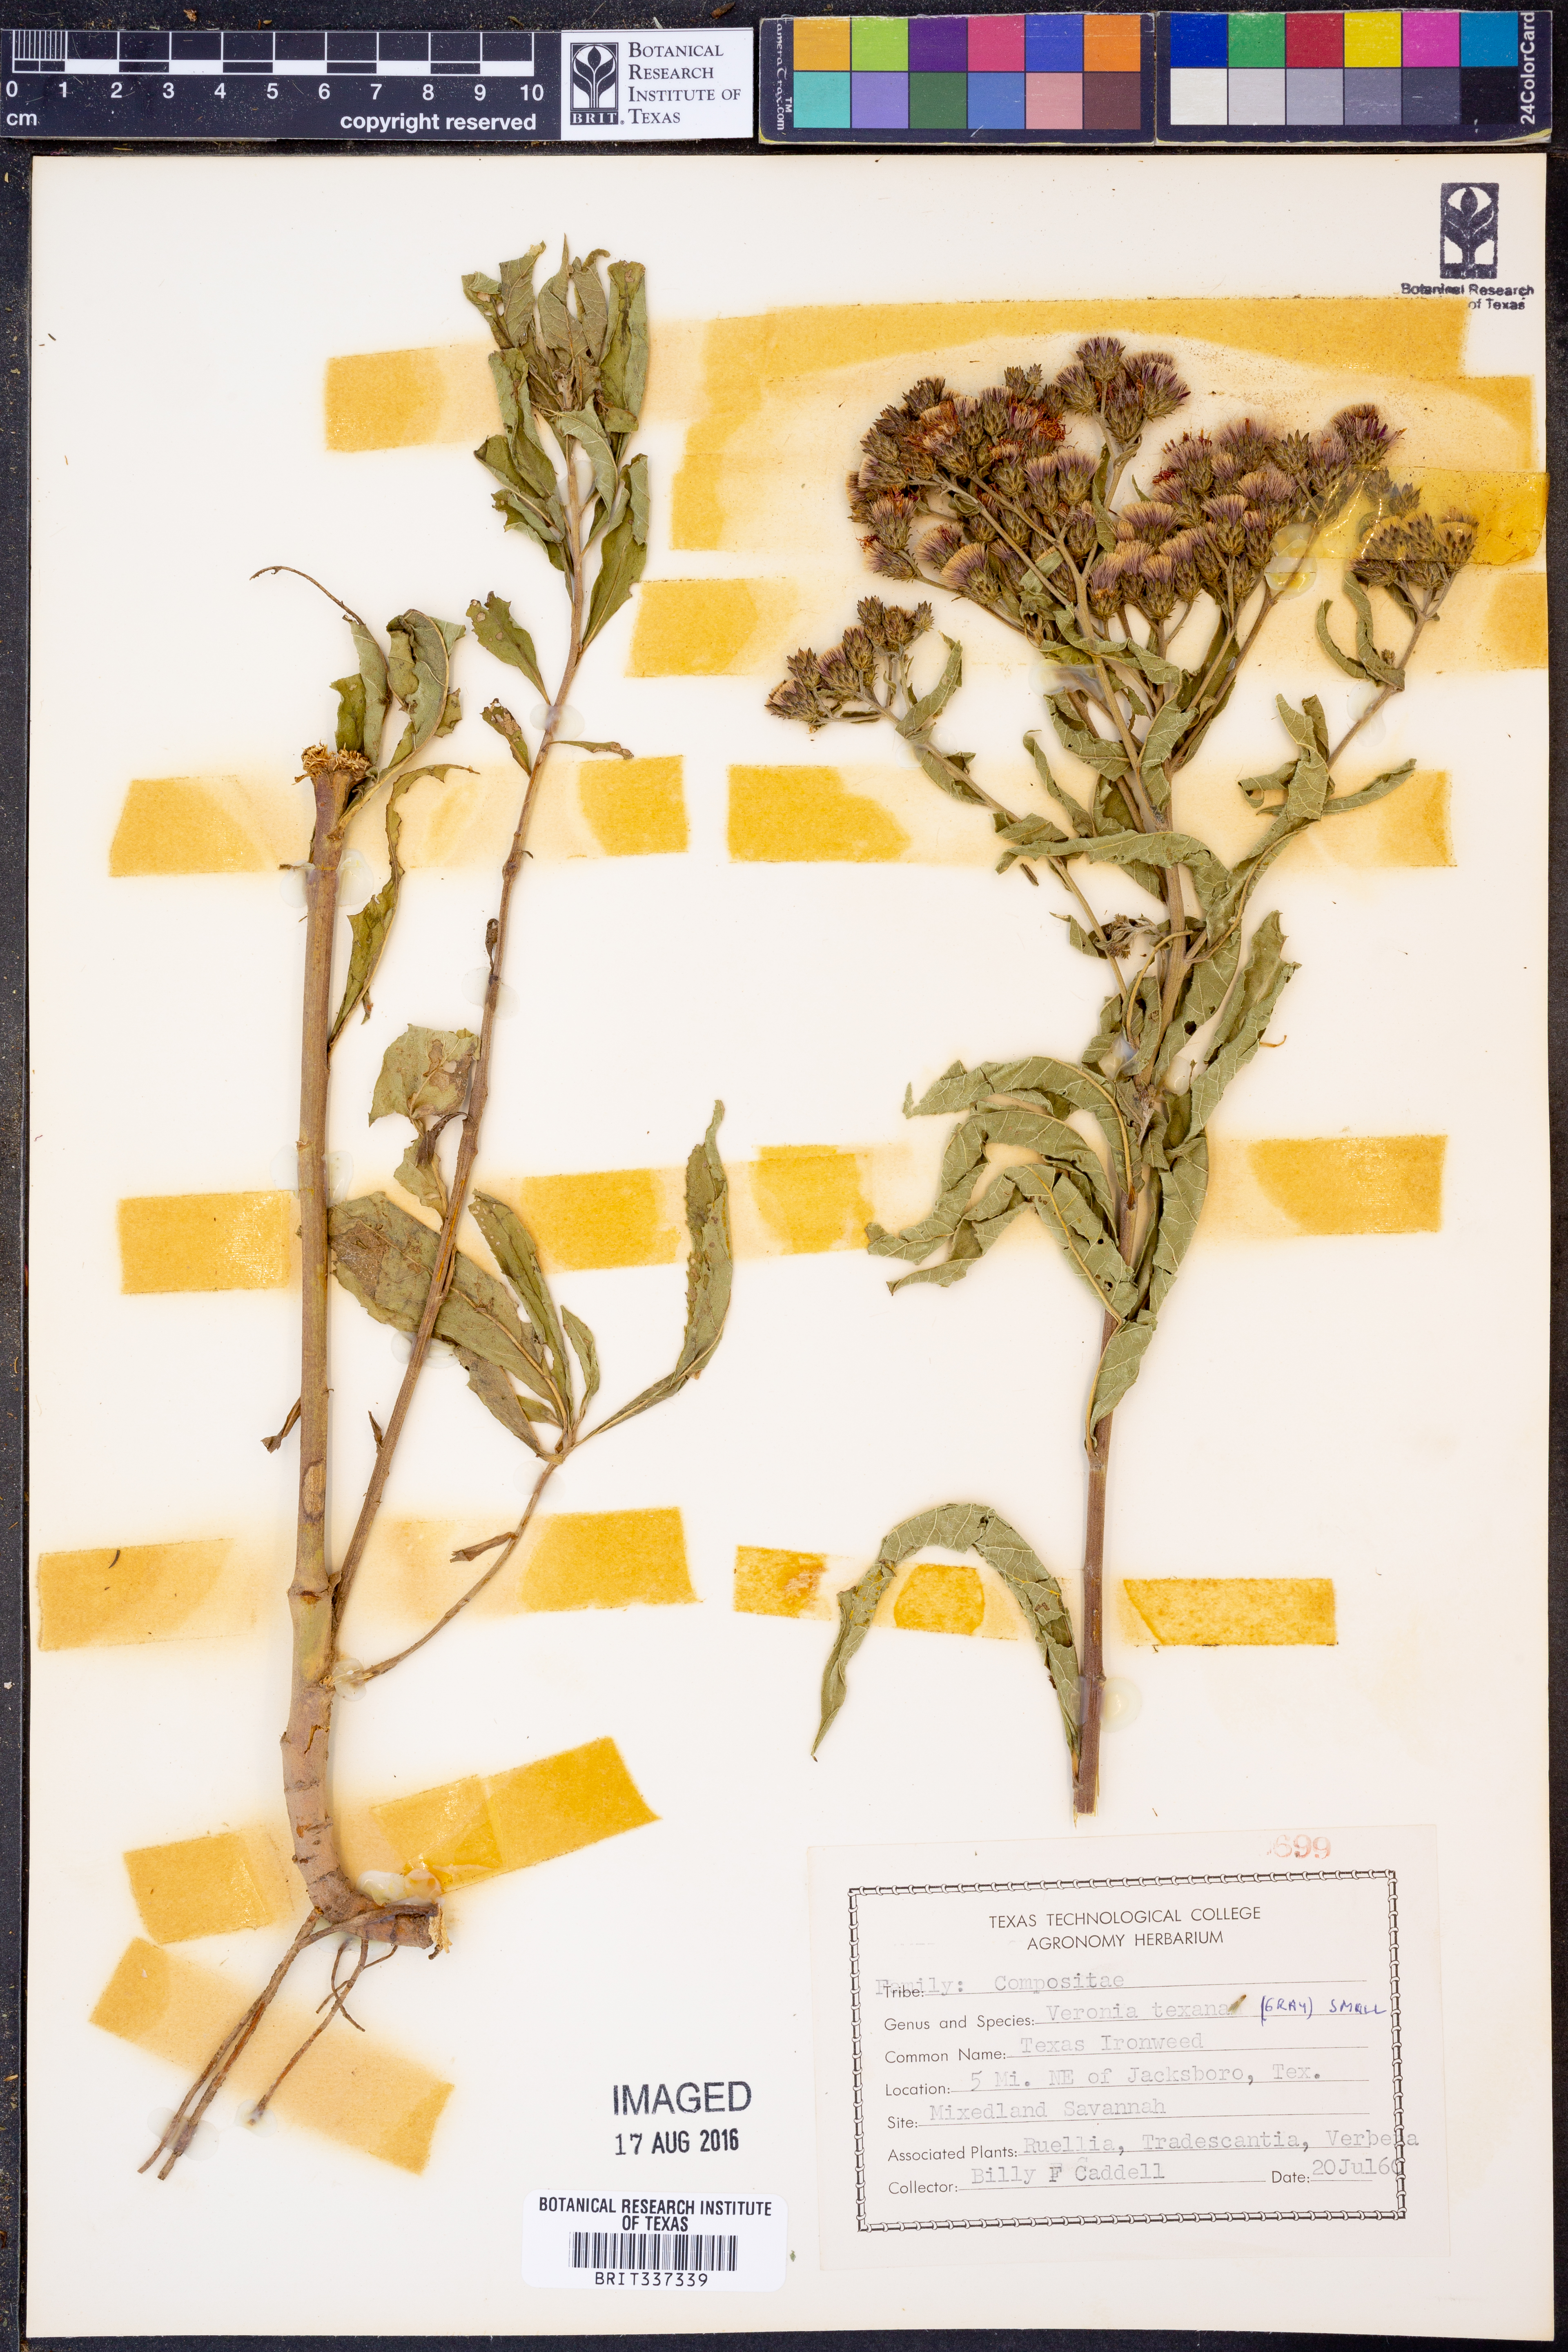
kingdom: Plantae
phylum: Tracheophyta
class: Magnoliopsida
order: Asterales
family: Asteraceae
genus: Vernonia
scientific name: Vernonia texana
